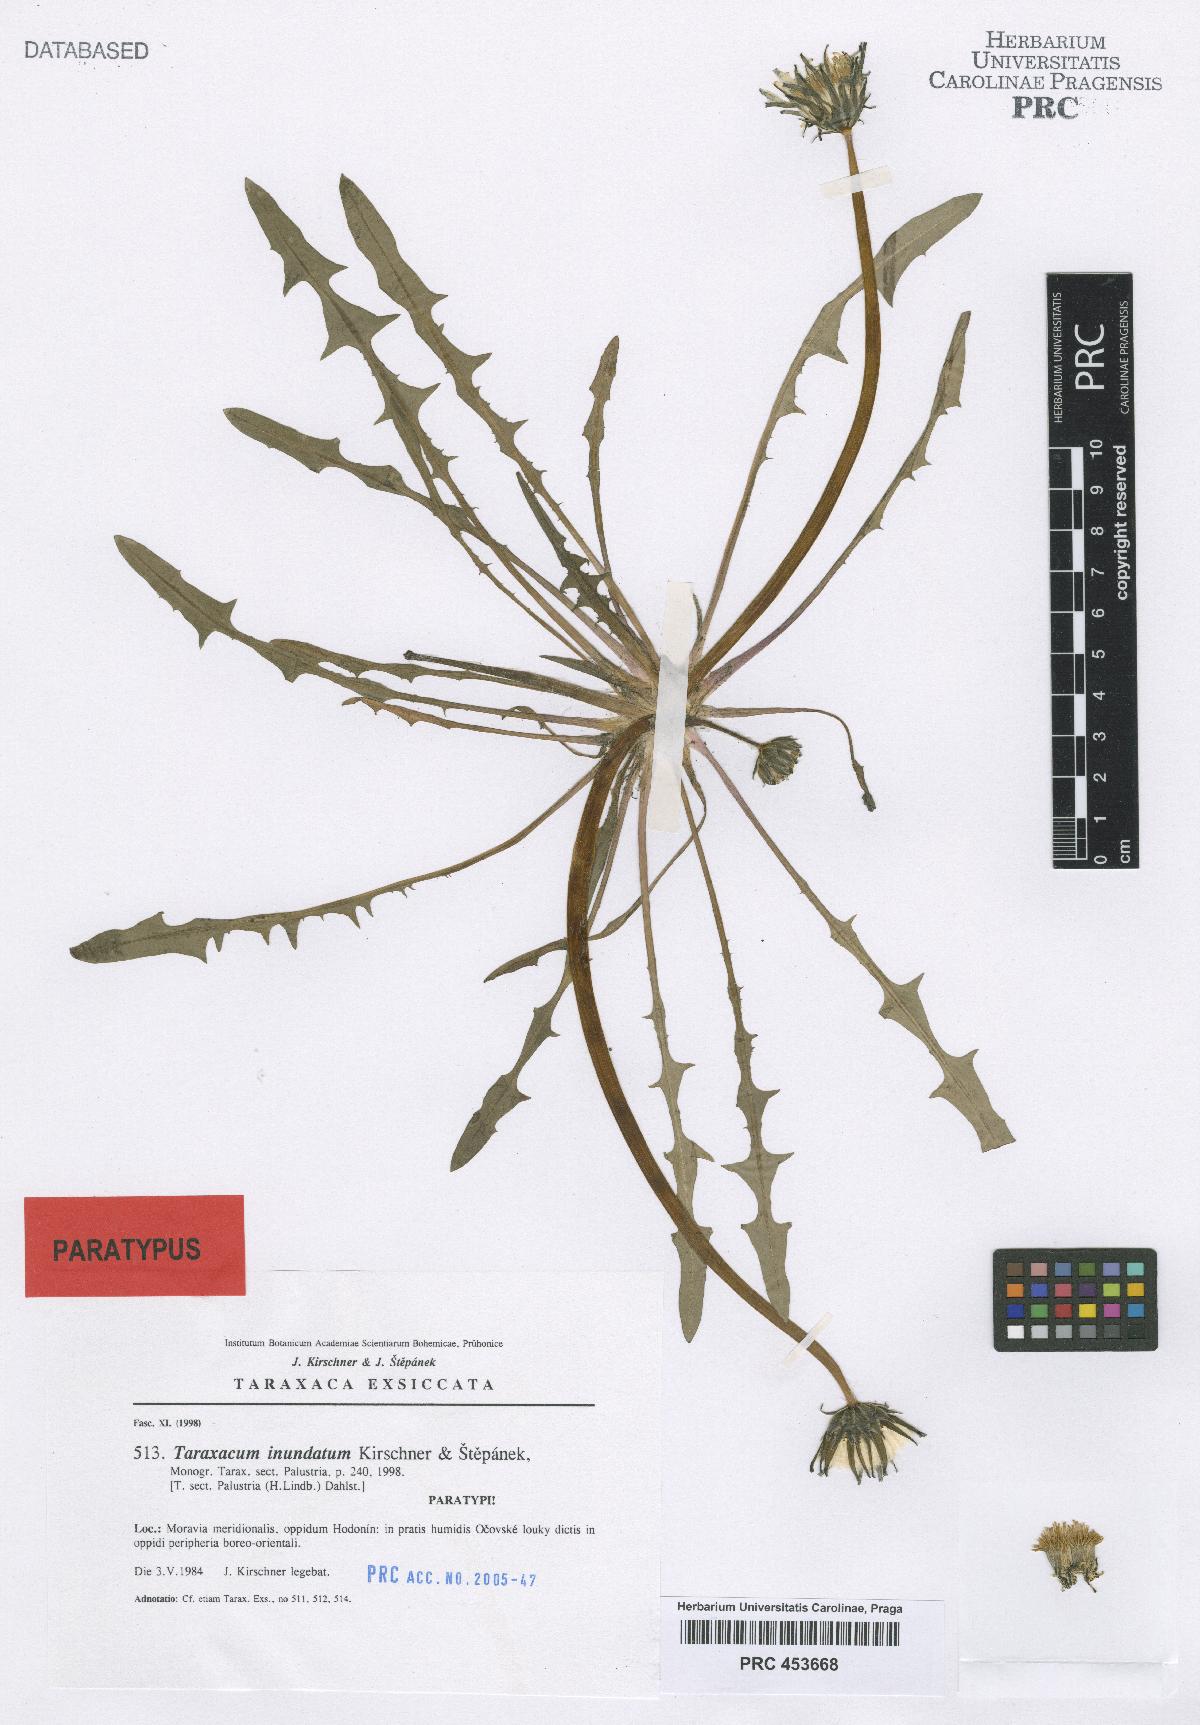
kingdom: Plantae
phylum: Tracheophyta
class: Magnoliopsida
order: Asterales
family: Asteraceae
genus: Taraxacum
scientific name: Taraxacum inundatum
